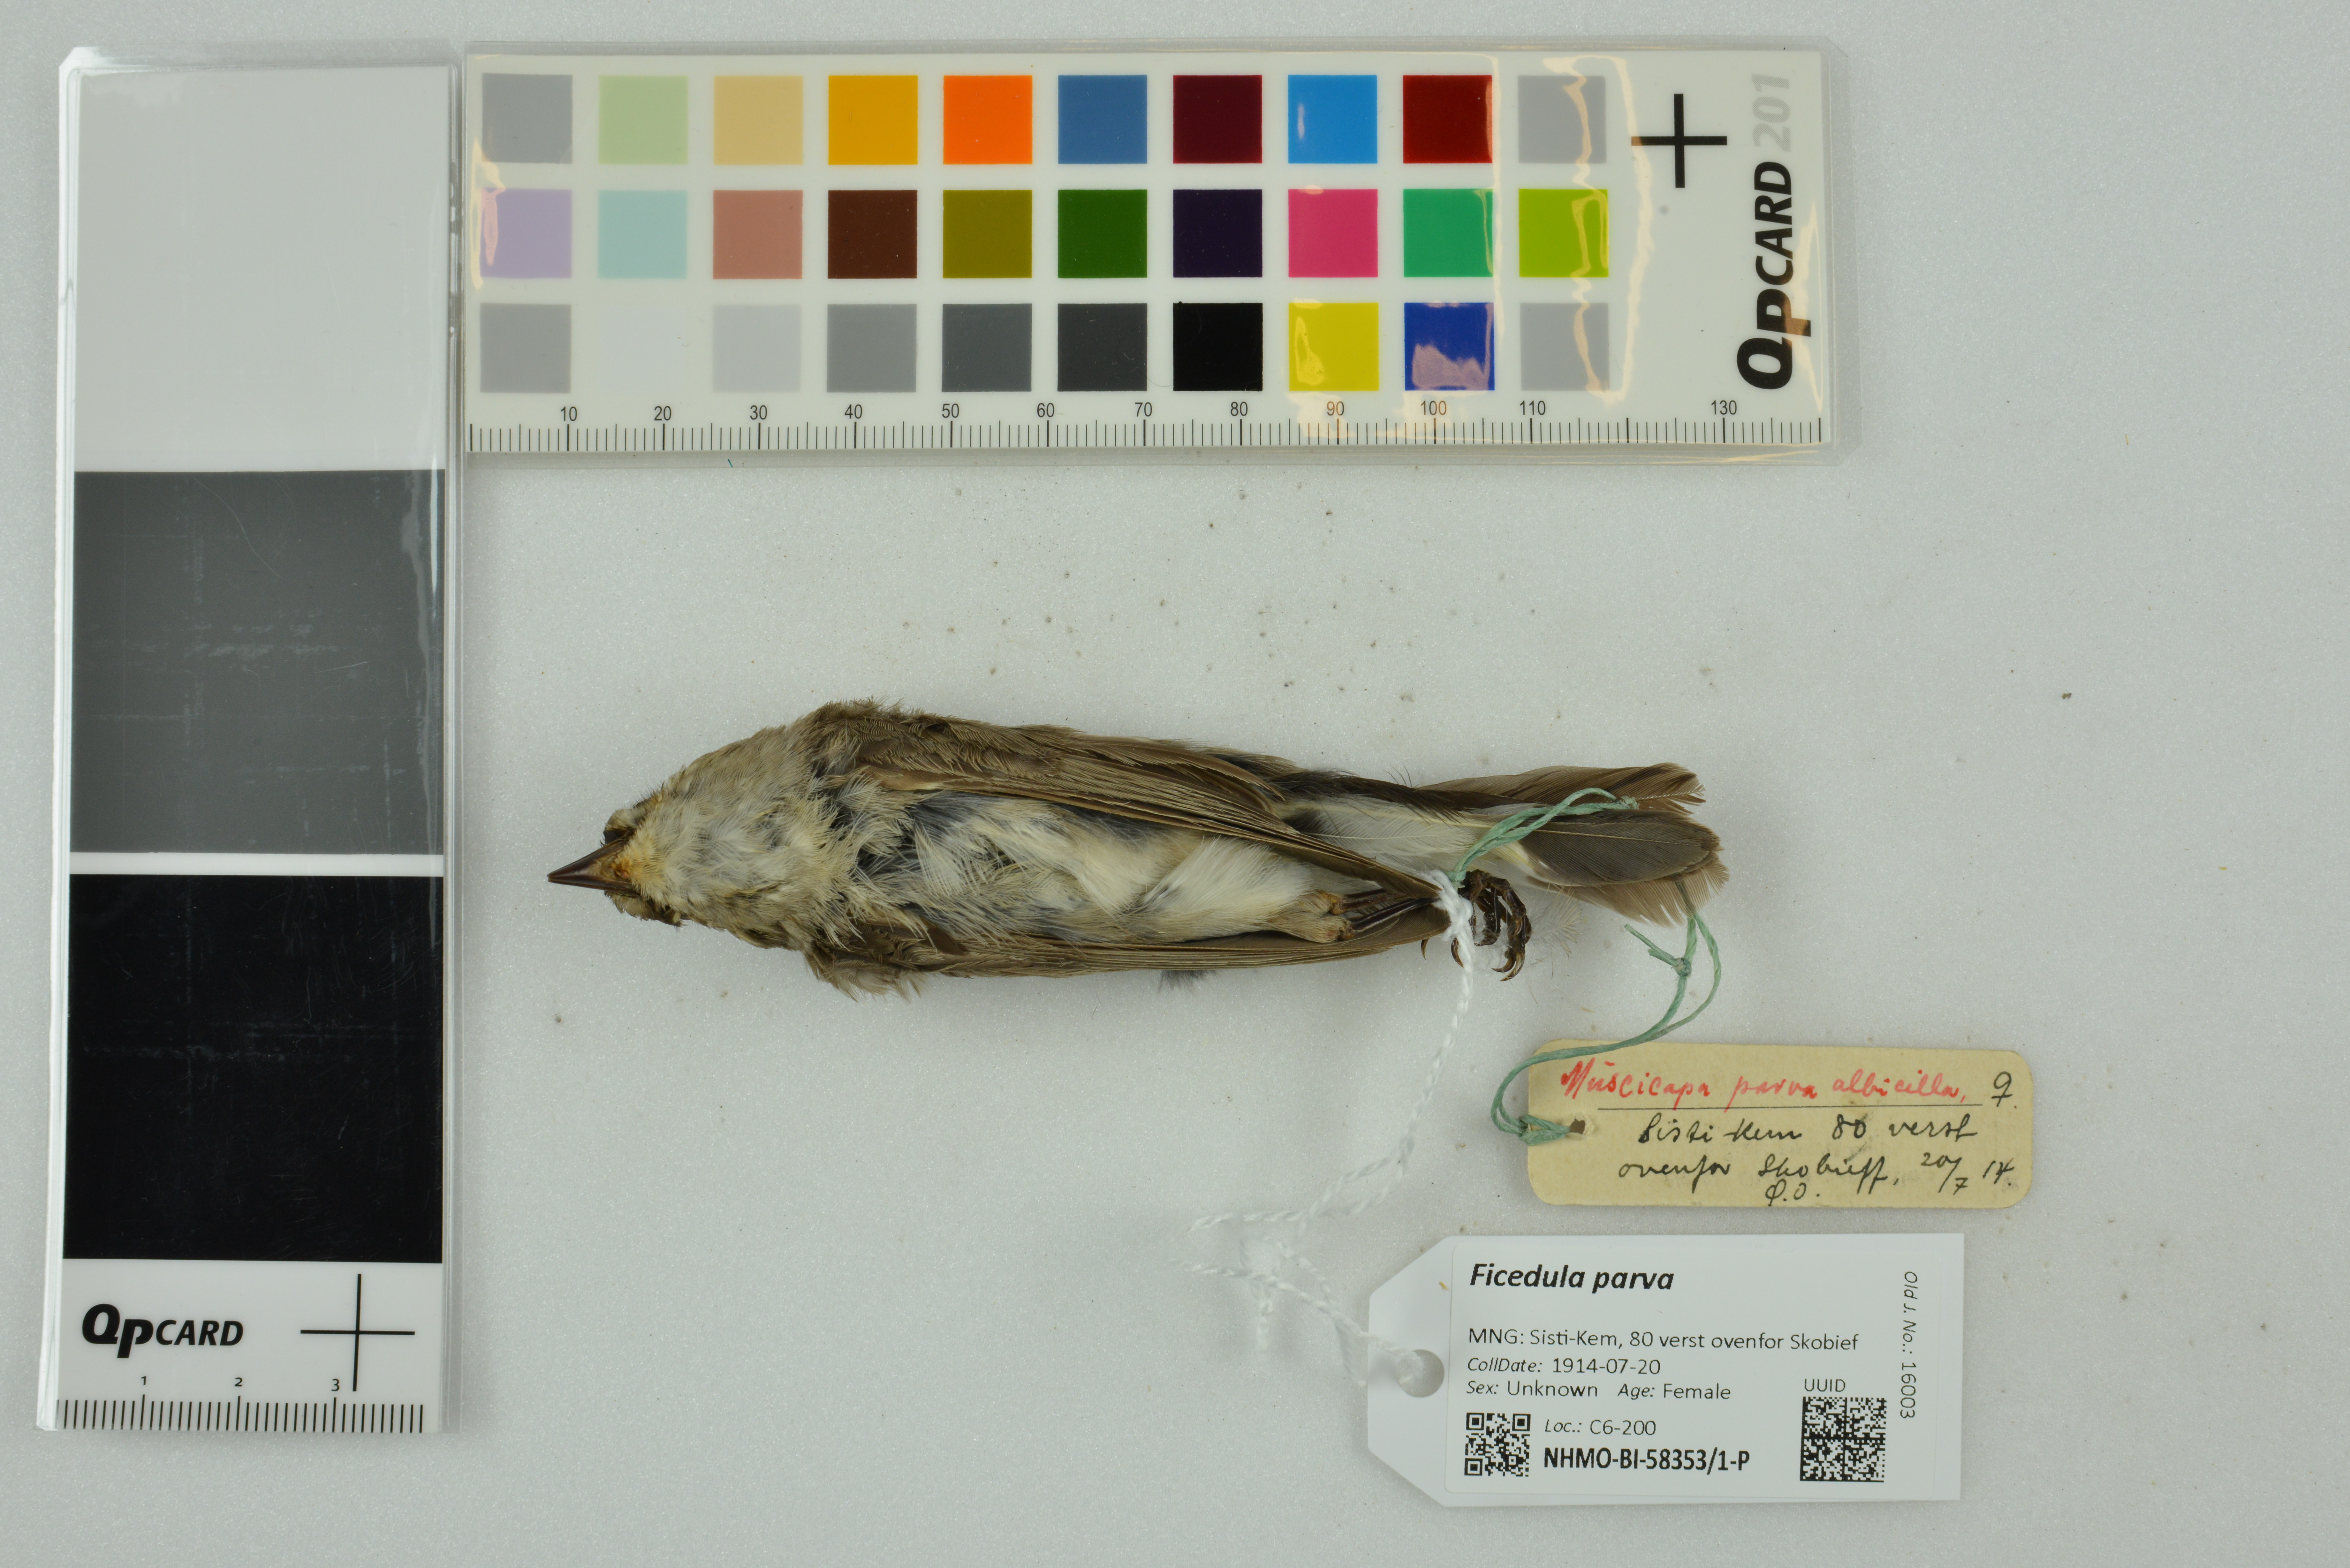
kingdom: Animalia
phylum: Chordata
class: Aves
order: Passeriformes
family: Muscicapidae
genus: Ficedula
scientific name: Ficedula parva
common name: Red-breasted flycatcher
